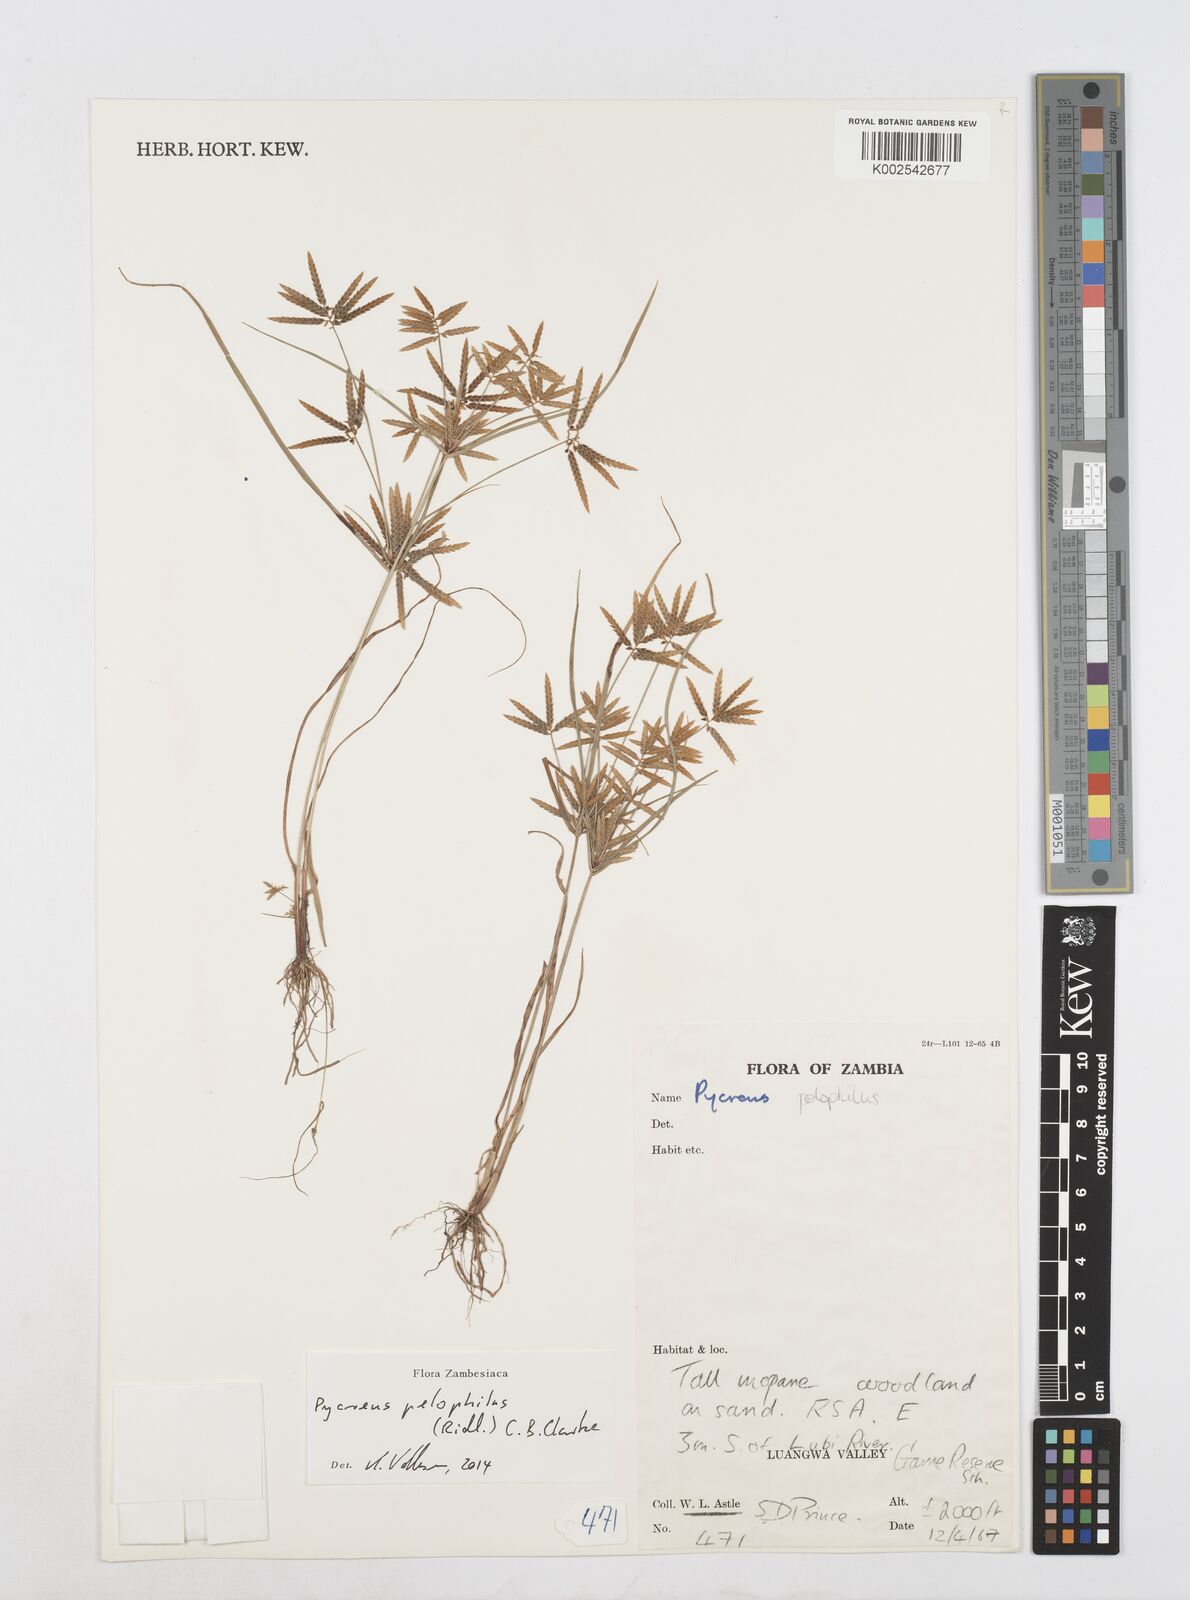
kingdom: Plantae
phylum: Tracheophyta
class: Liliopsida
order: Poales
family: Cyperaceae
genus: Cyperus
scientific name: Cyperus pelophilus
